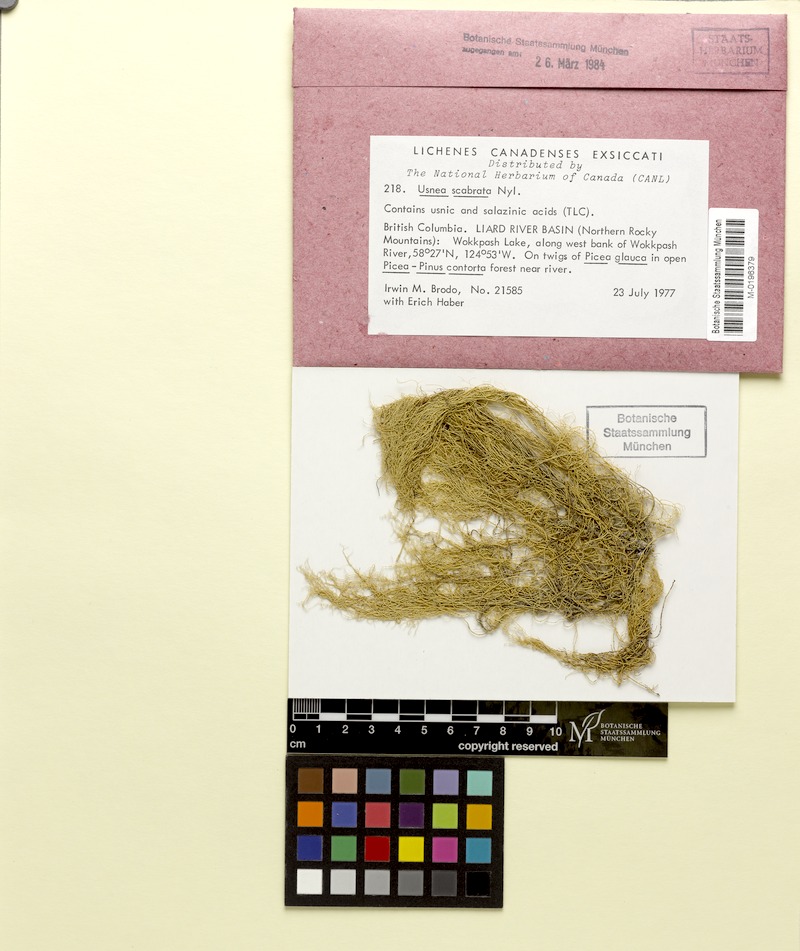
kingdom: Fungi
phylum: Ascomycota
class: Lecanoromycetes
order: Lecanorales
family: Parmeliaceae
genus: Usnea
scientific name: Usnea scabrata
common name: Straw beard lichen
